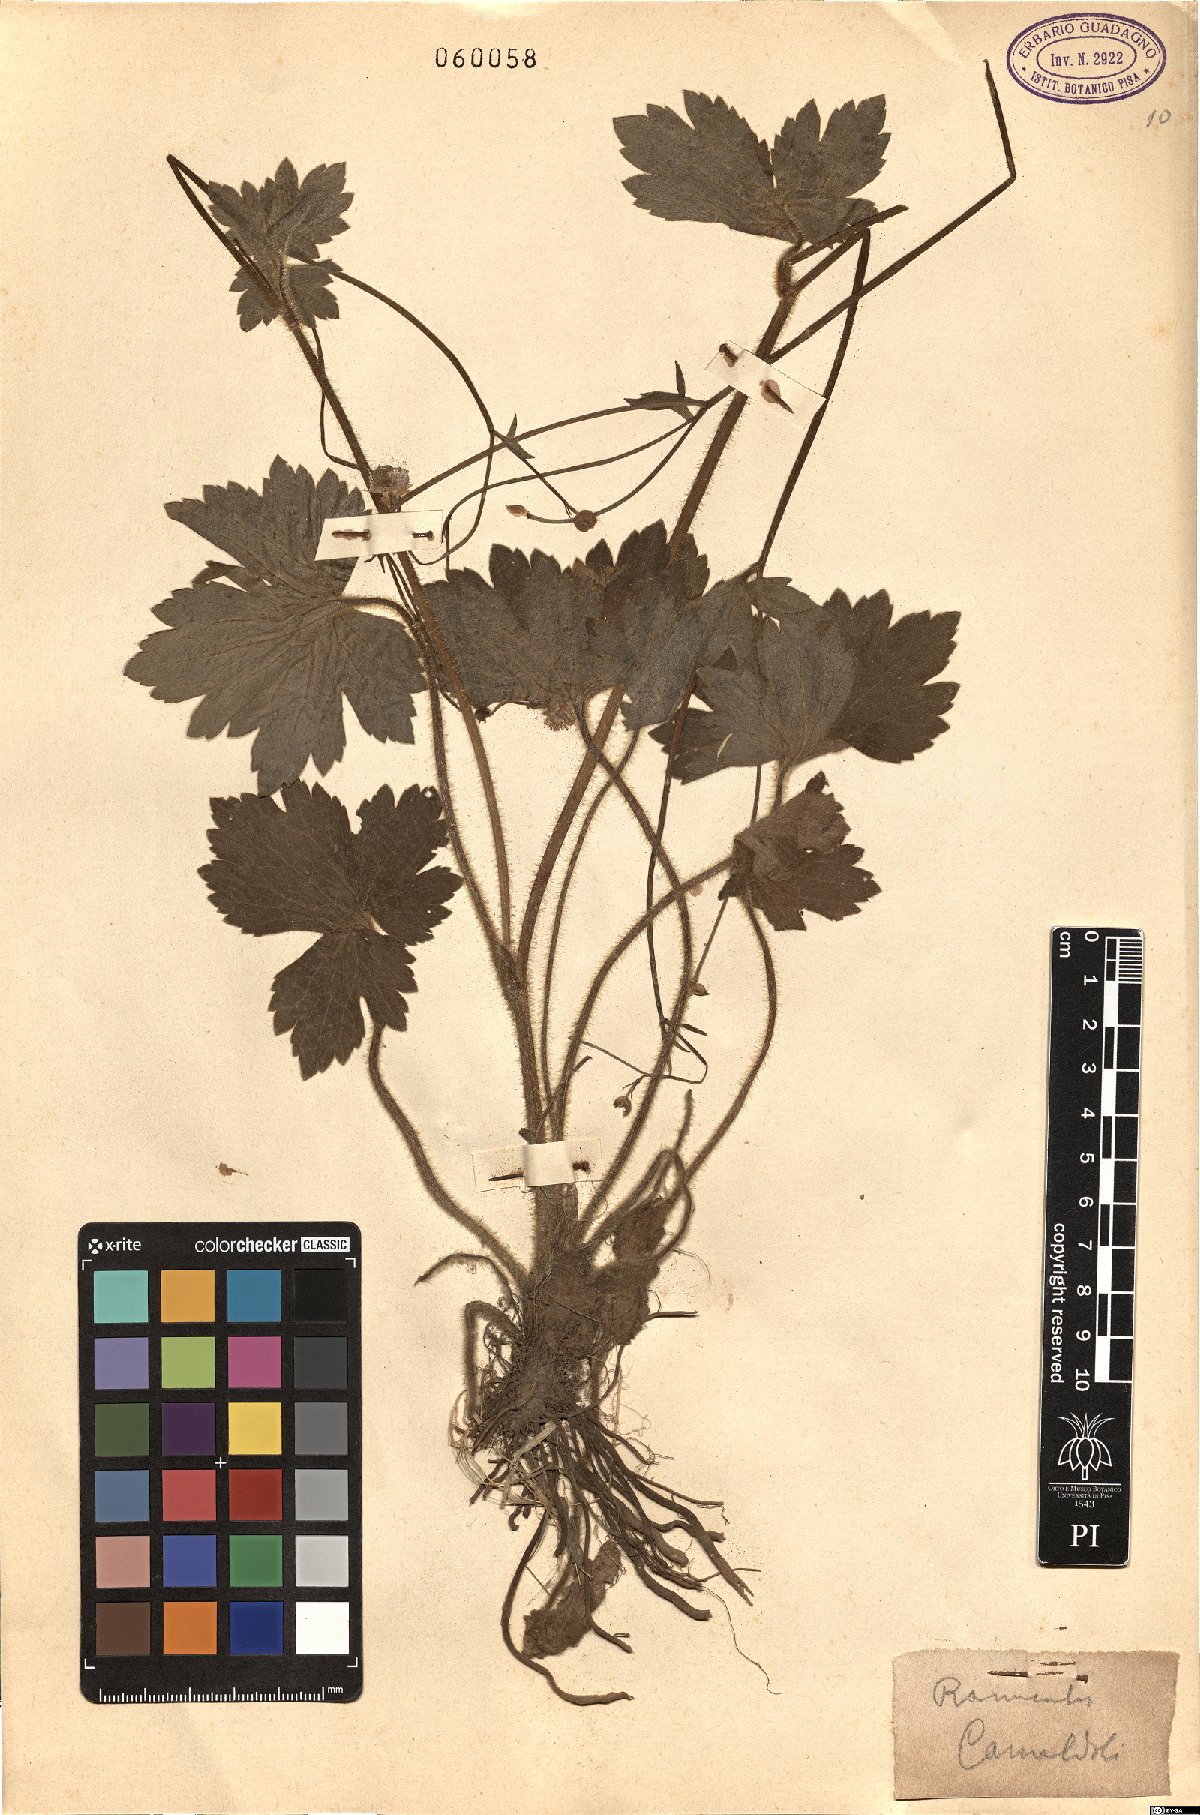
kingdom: Plantae
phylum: Tracheophyta
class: Magnoliopsida
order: Ranunculales
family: Ranunculaceae
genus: Ranunculus
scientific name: Ranunculus
